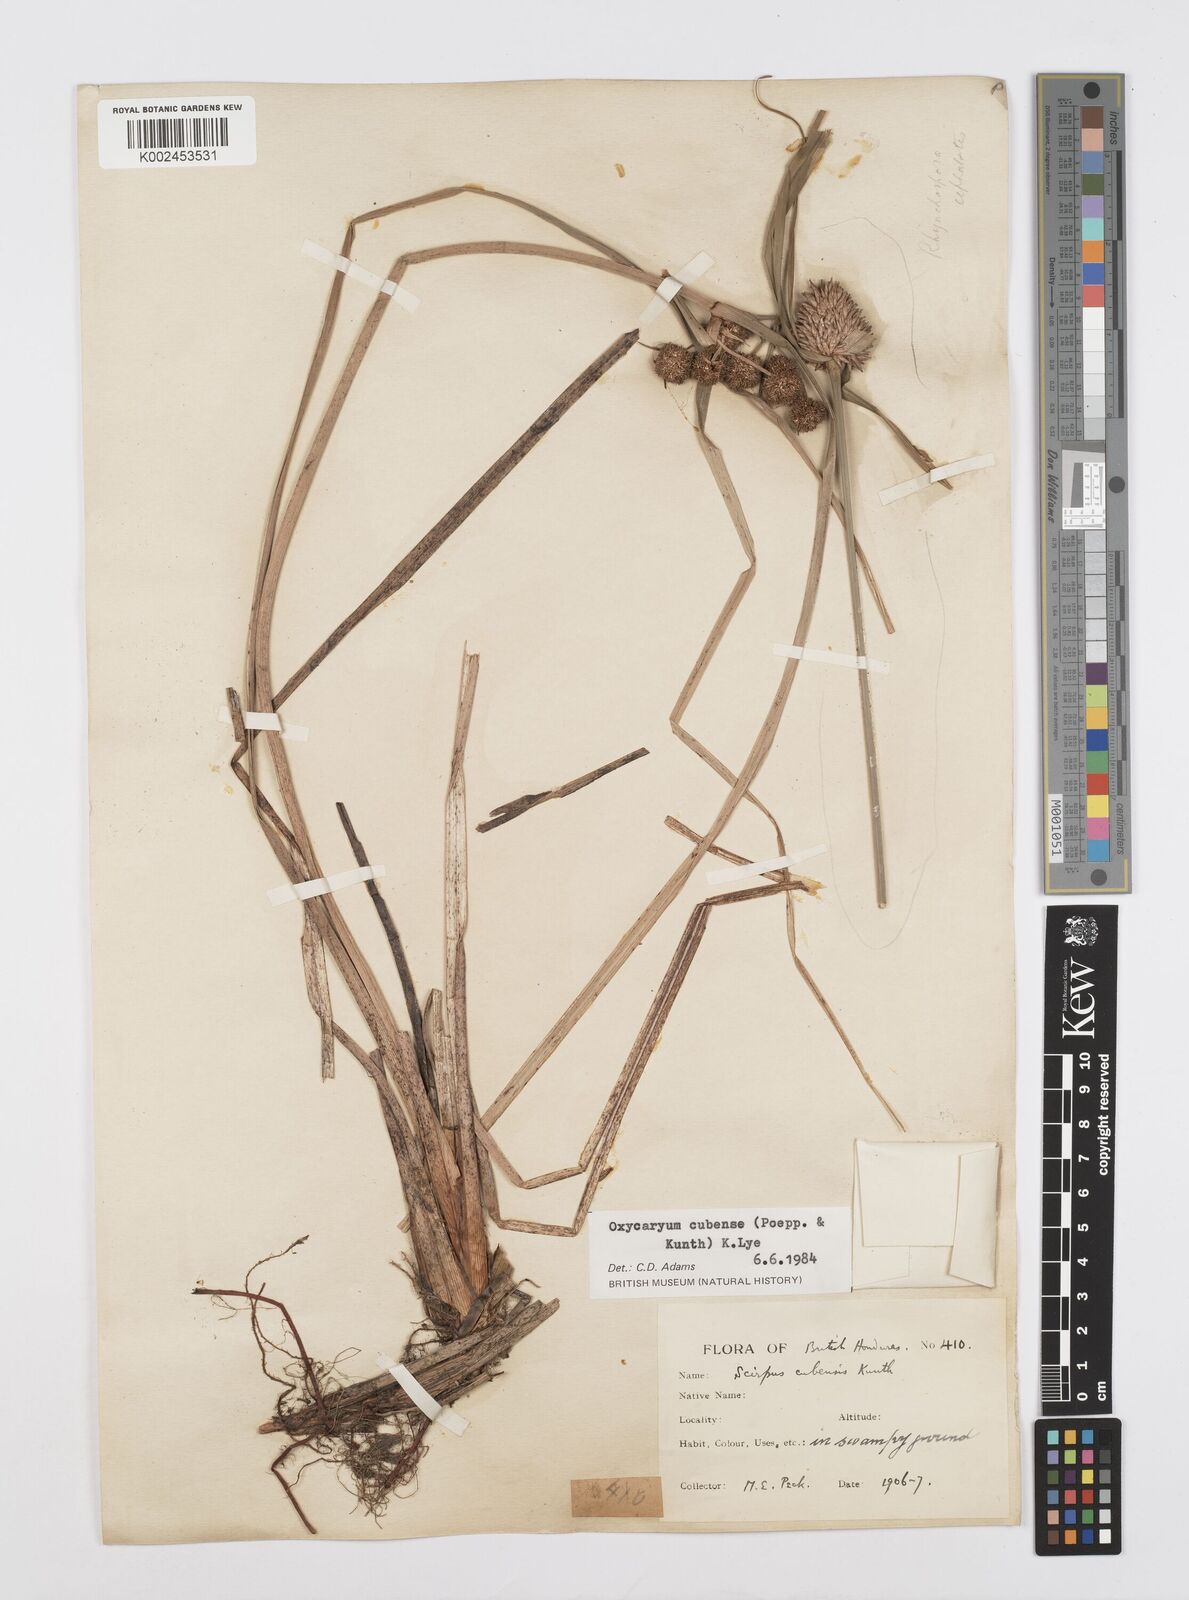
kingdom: Plantae
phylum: Tracheophyta
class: Liliopsida
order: Poales
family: Cyperaceae
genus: Cyperus
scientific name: Cyperus elegans
